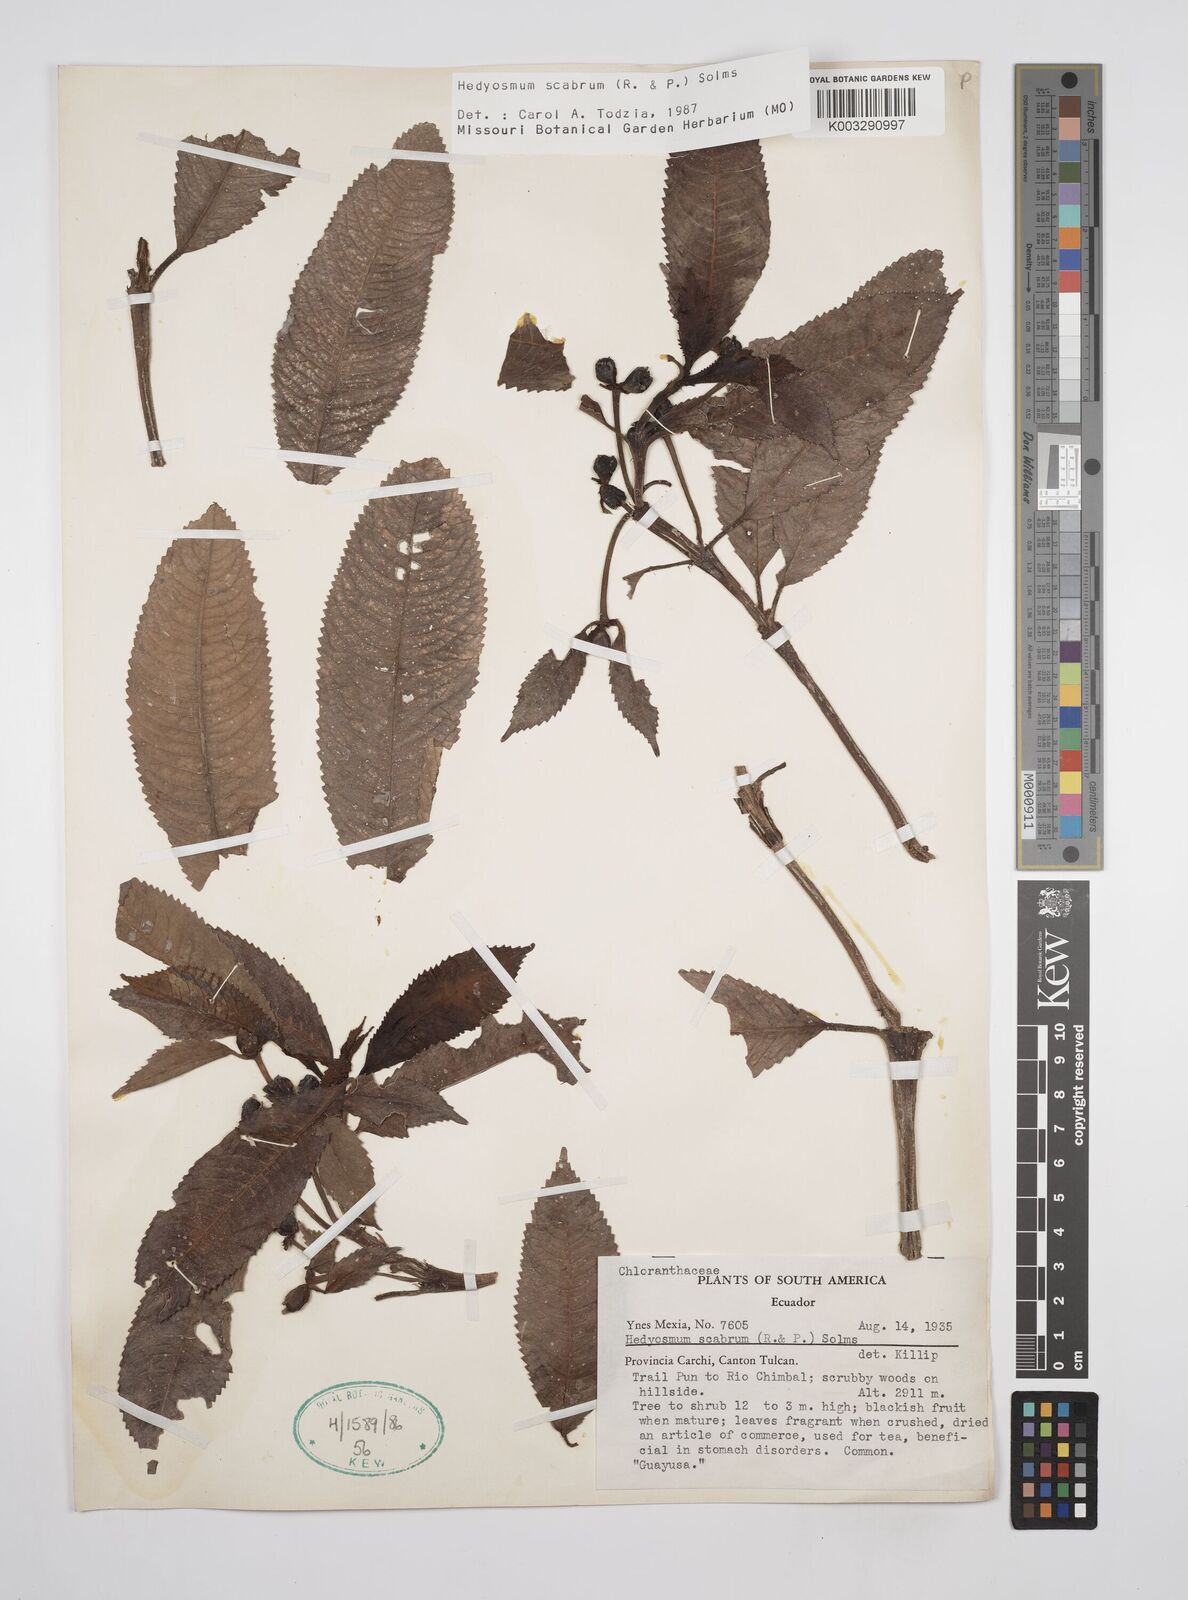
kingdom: Plantae
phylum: Tracheophyta
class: Magnoliopsida
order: Chloranthales
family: Chloranthaceae
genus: Hedyosmum
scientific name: Hedyosmum scabrum
